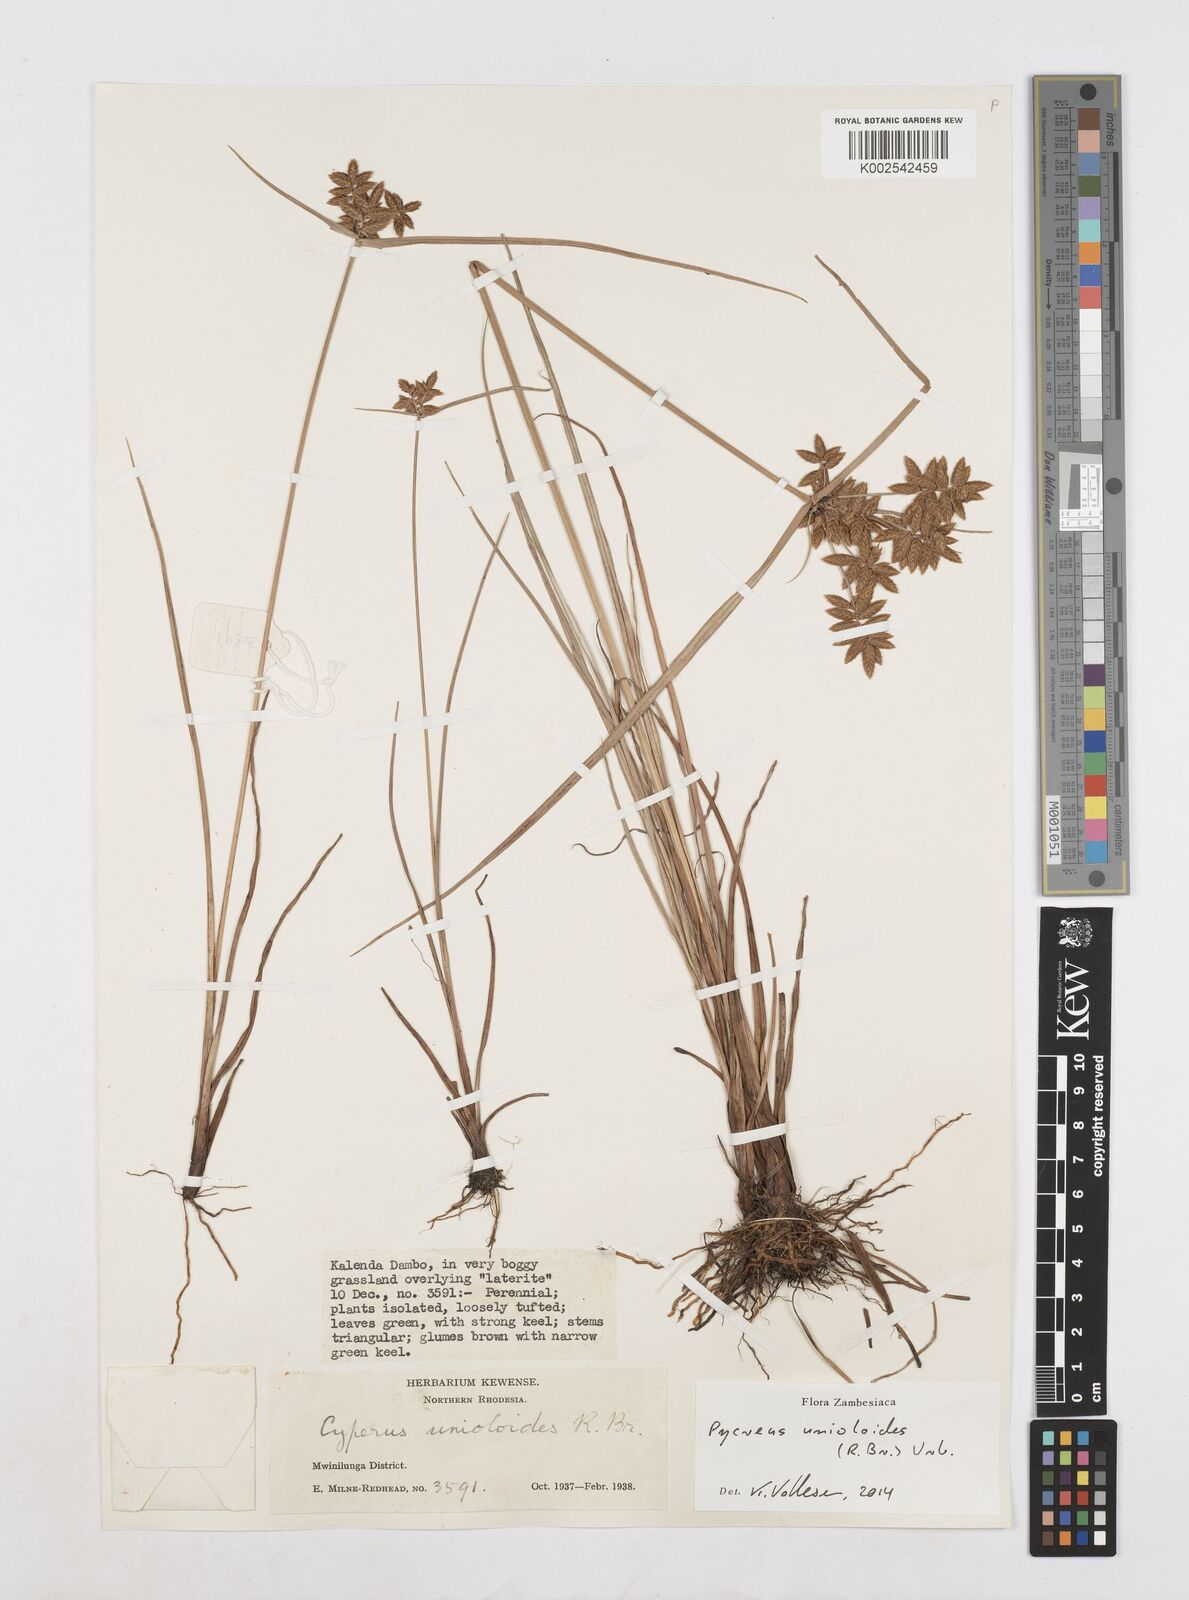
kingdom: Plantae
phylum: Tracheophyta
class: Liliopsida
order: Poales
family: Cyperaceae
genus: Cyperus
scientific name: Cyperus unioloides
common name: Uniola flatsedge
